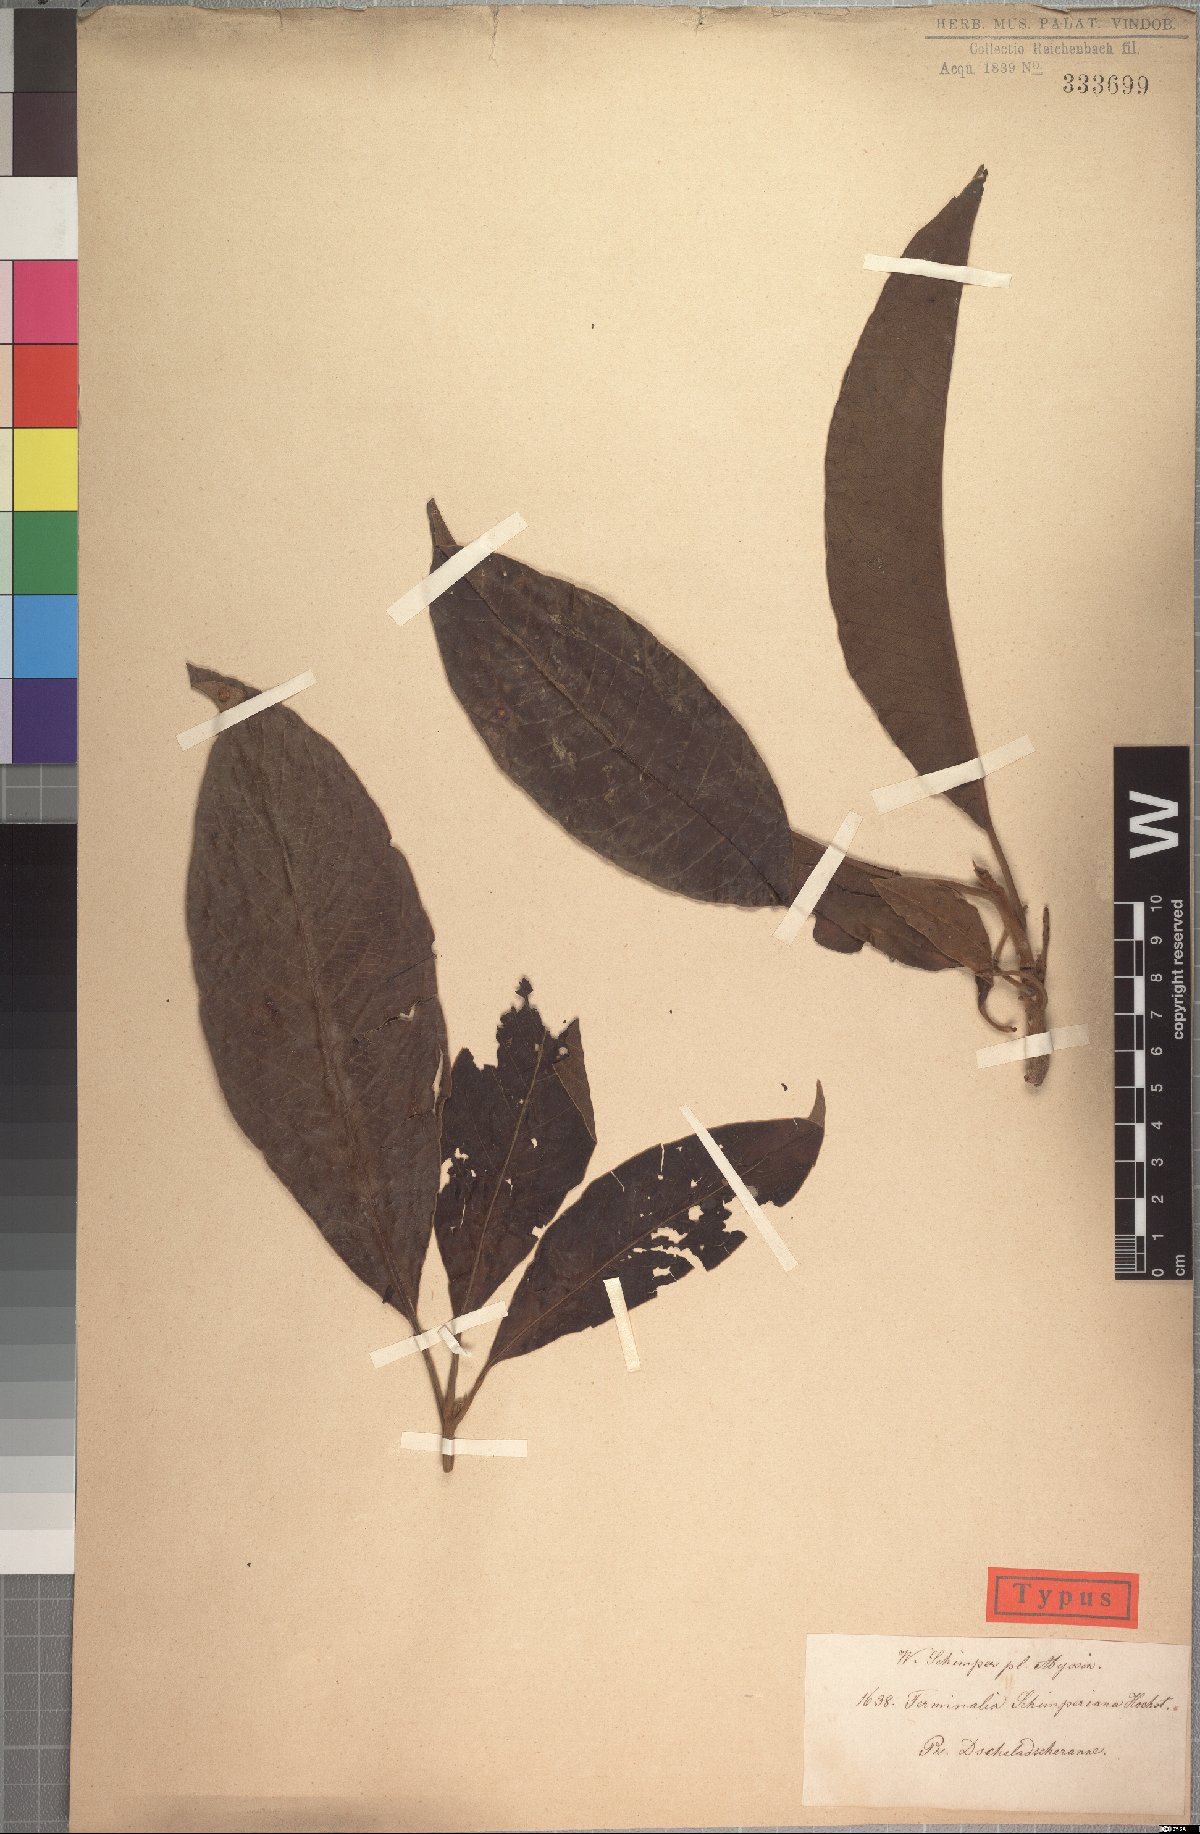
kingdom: Plantae
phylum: Tracheophyta
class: Magnoliopsida
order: Myrtales
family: Combretaceae
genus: Terminalia
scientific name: Terminalia schimperiana
